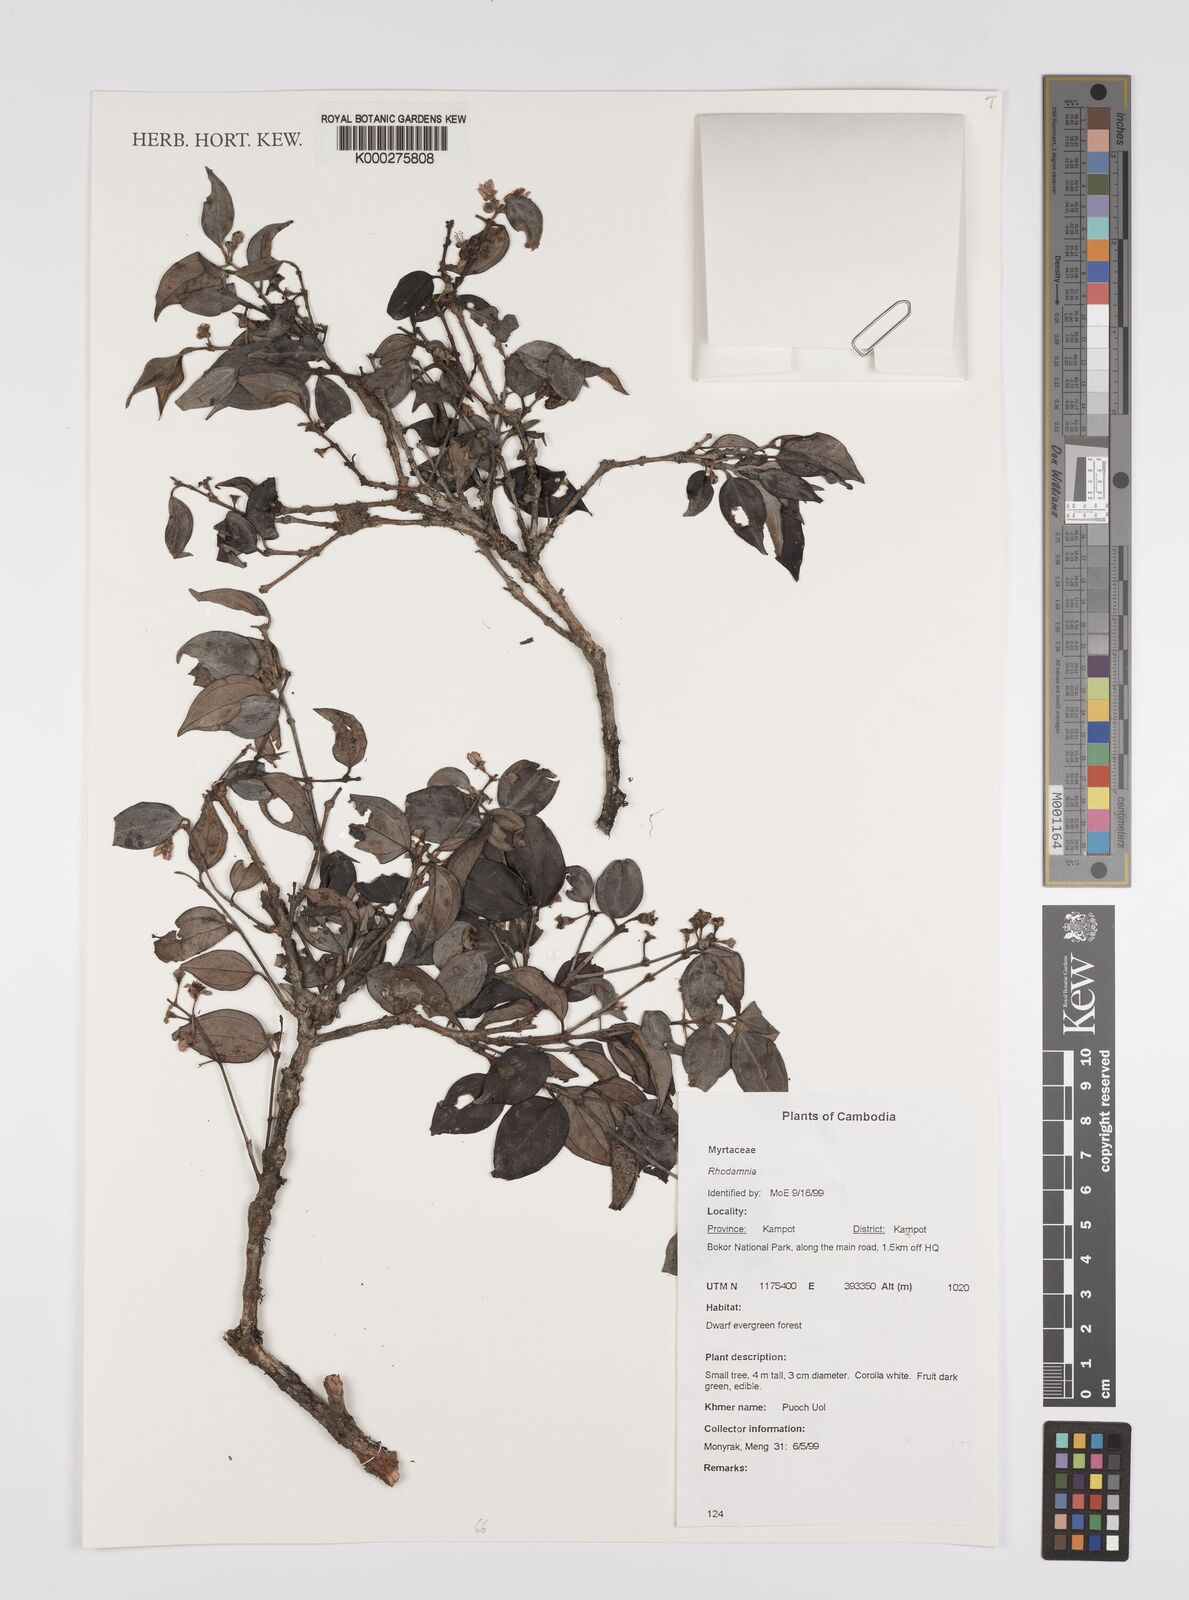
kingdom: Plantae
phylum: Tracheophyta
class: Magnoliopsida
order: Myrtales
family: Myrtaceae
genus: Rhodamnia
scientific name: Rhodamnia
